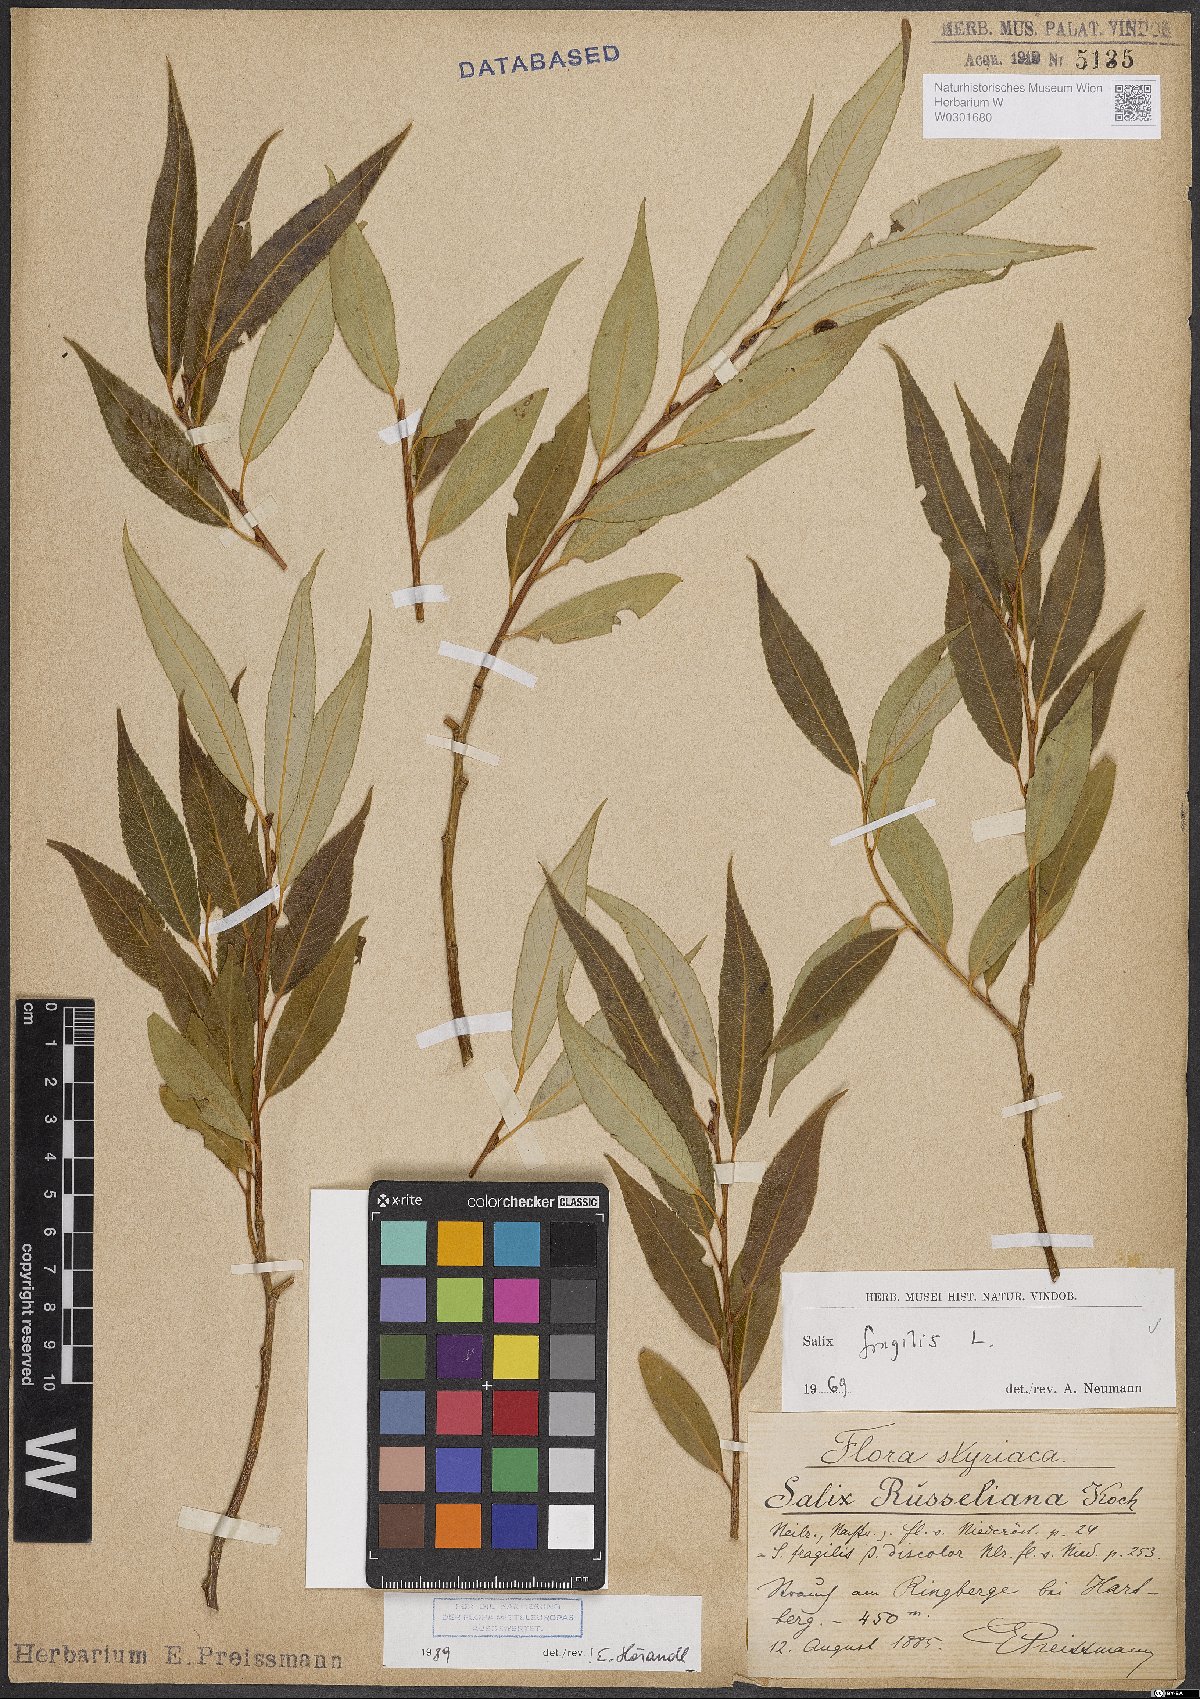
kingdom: Plantae
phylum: Tracheophyta
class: Magnoliopsida
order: Malpighiales
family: Salicaceae
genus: Salix
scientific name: Salix fragilis
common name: Crack willow
